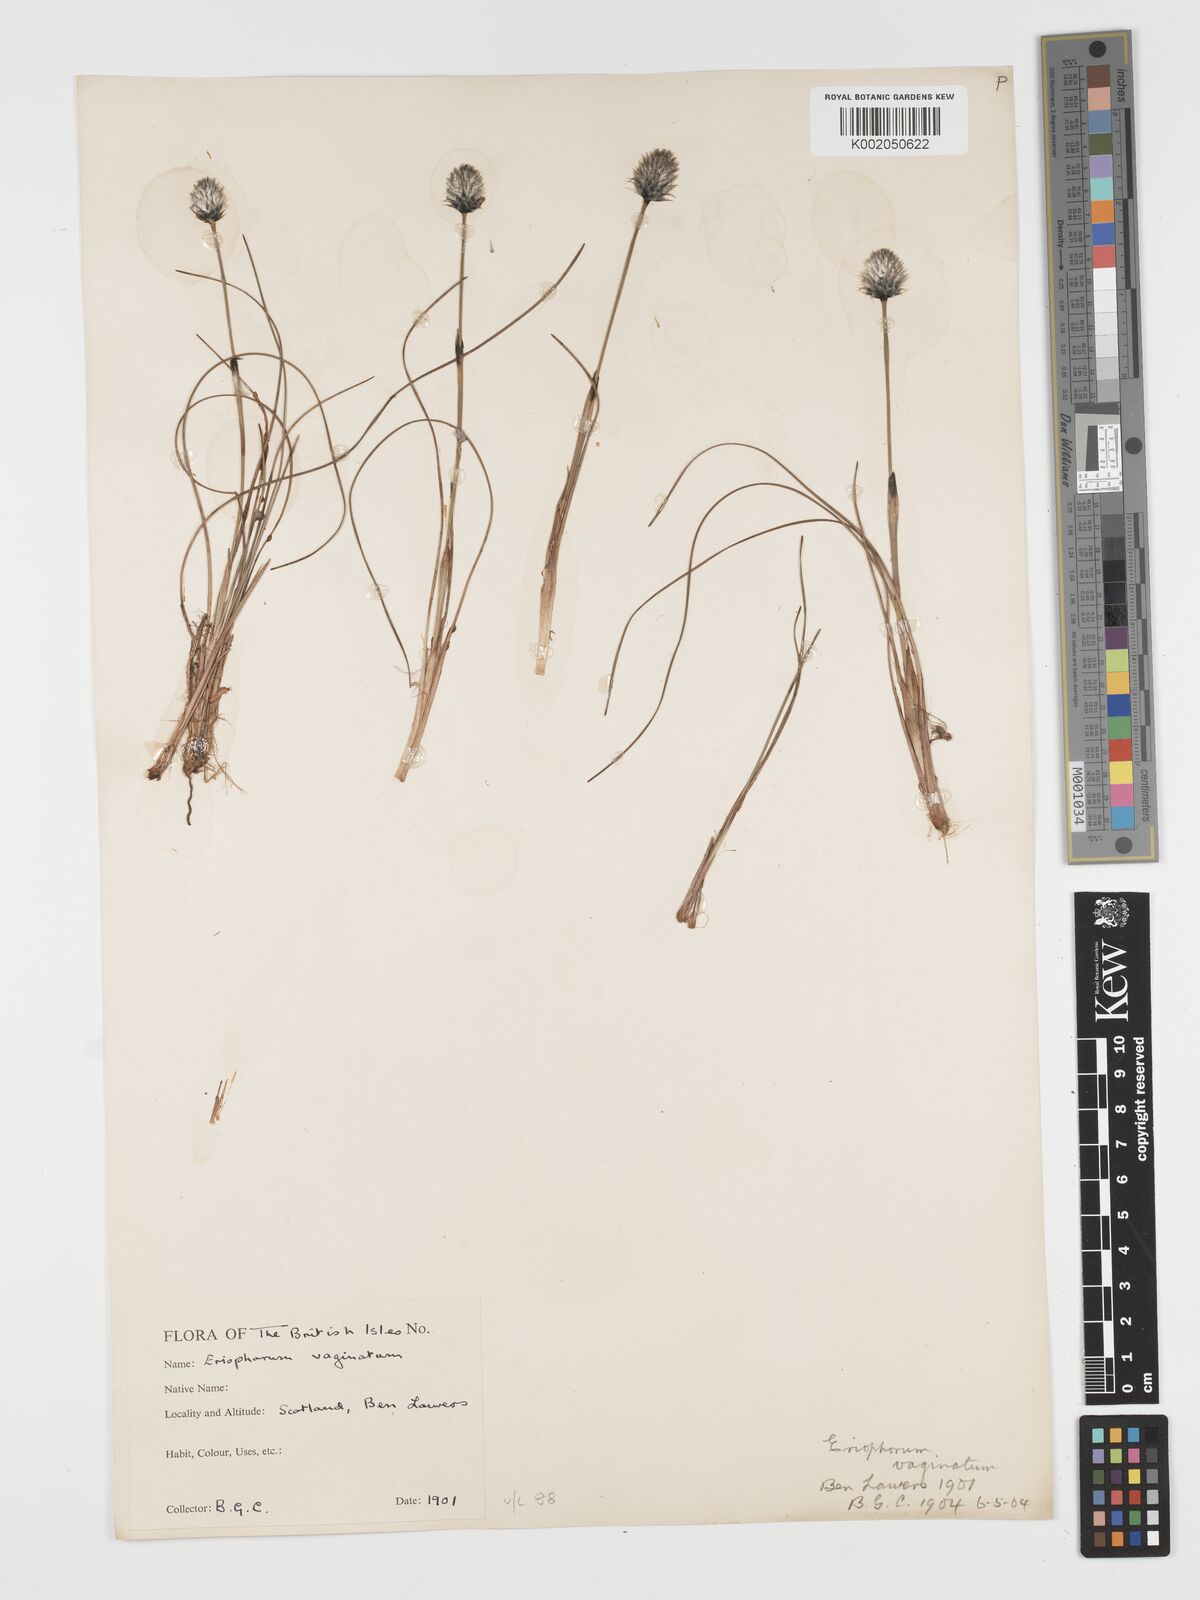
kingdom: Plantae
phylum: Tracheophyta
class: Liliopsida
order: Poales
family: Cyperaceae
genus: Eriophorum
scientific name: Eriophorum vaginatum
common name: Hare's-tail cottongrass
